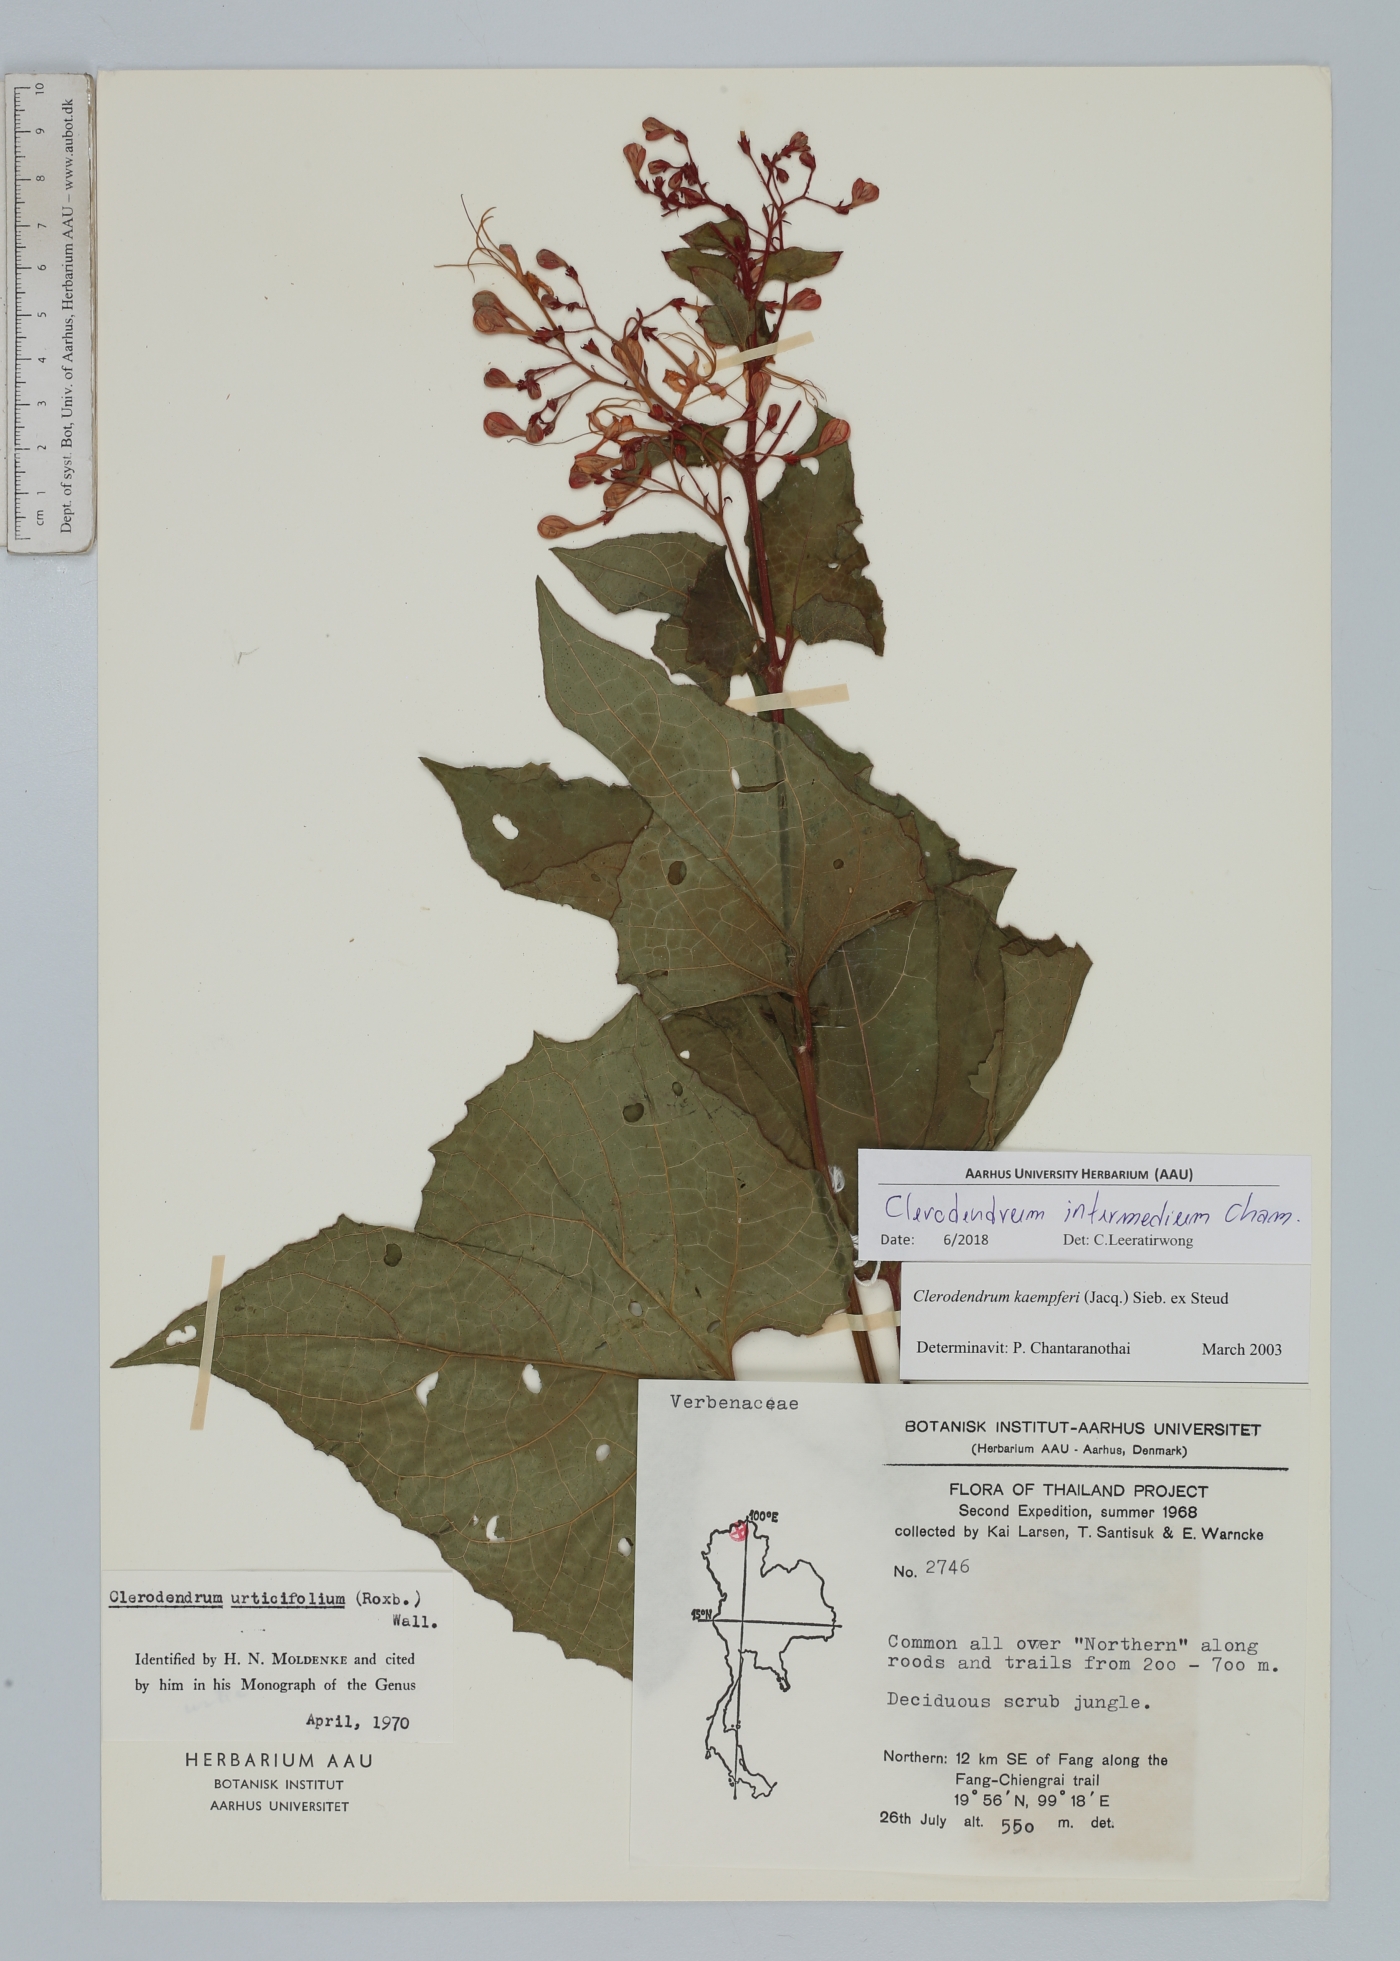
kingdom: Plantae
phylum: Tracheophyta
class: Magnoliopsida
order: Lamiales
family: Lamiaceae
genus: Clerodendrum
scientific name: Clerodendrum intermedium
